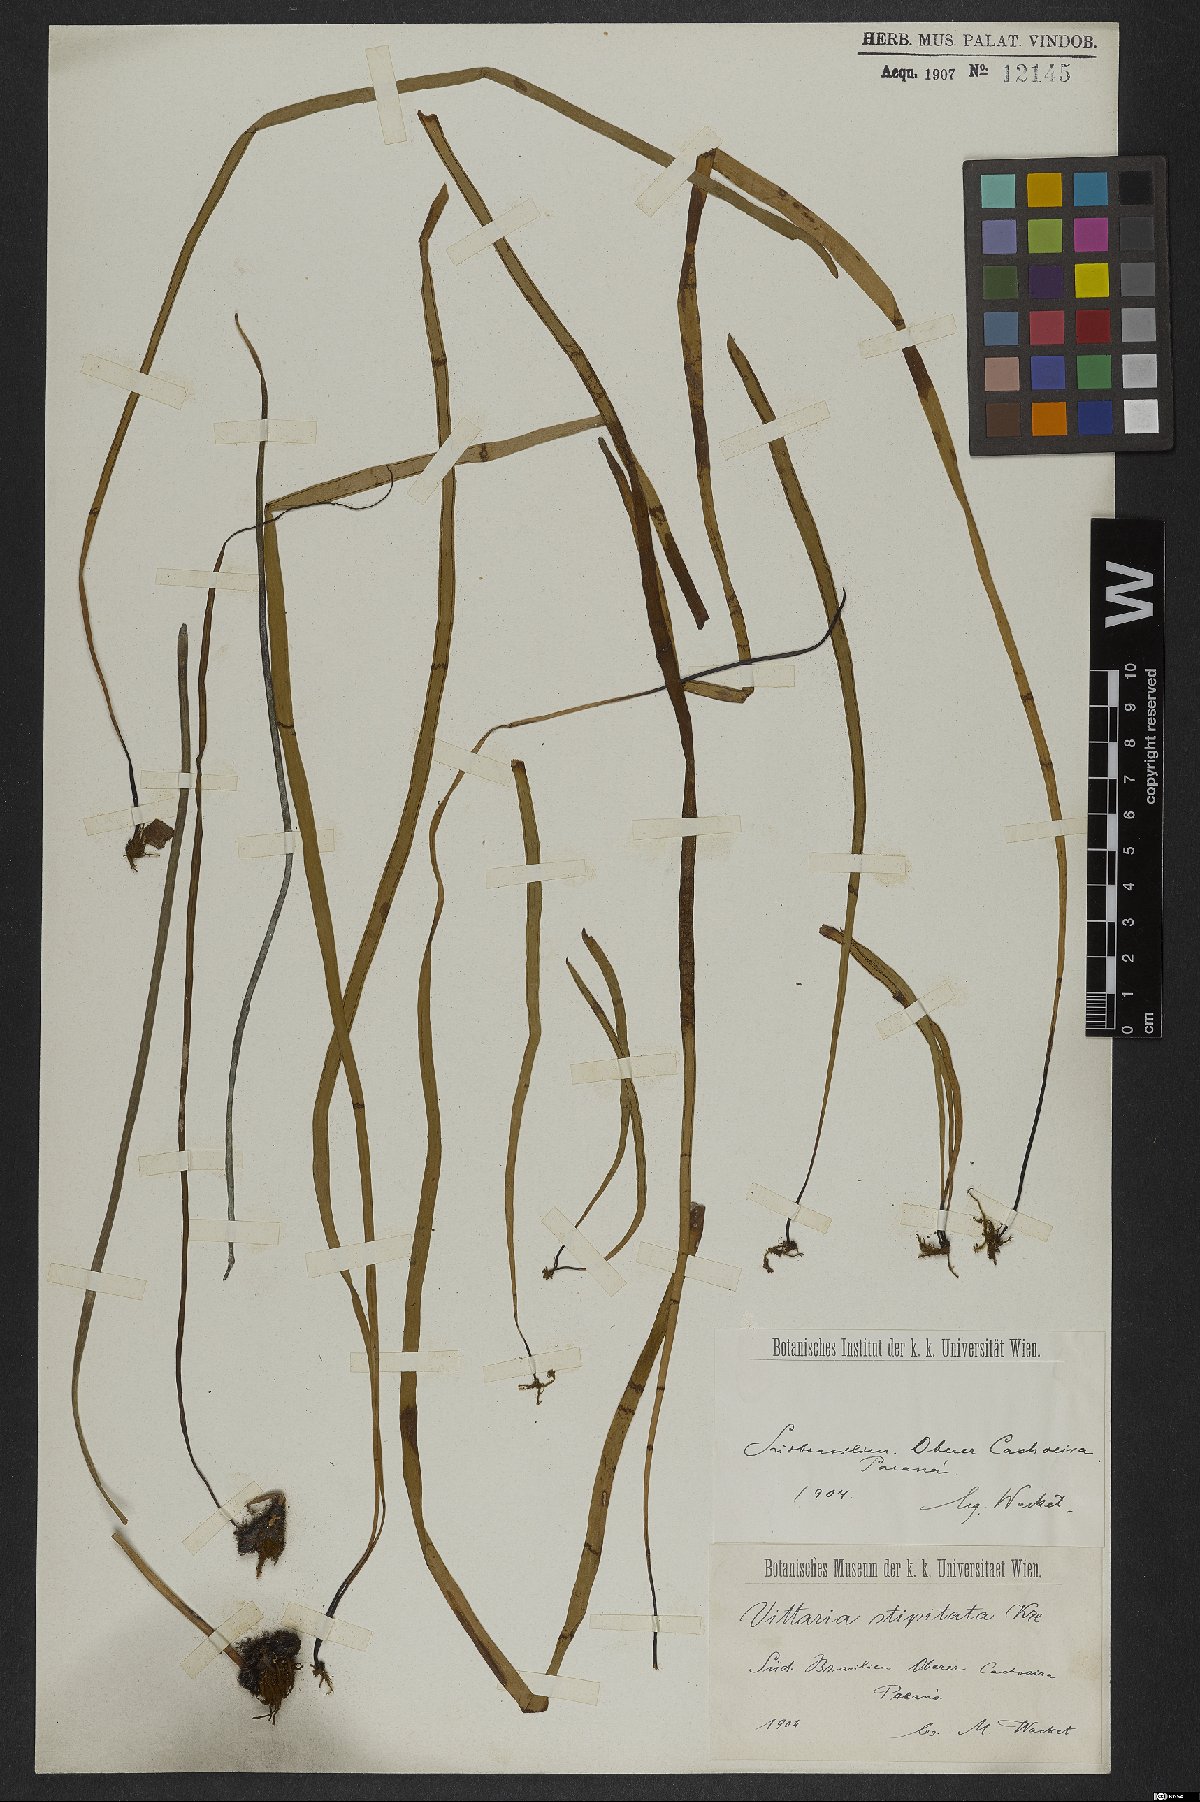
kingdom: Plantae
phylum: Tracheophyta
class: Polypodiopsida
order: Polypodiales
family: Pteridaceae
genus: Radiovittaria
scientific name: Radiovittaria stipitata
